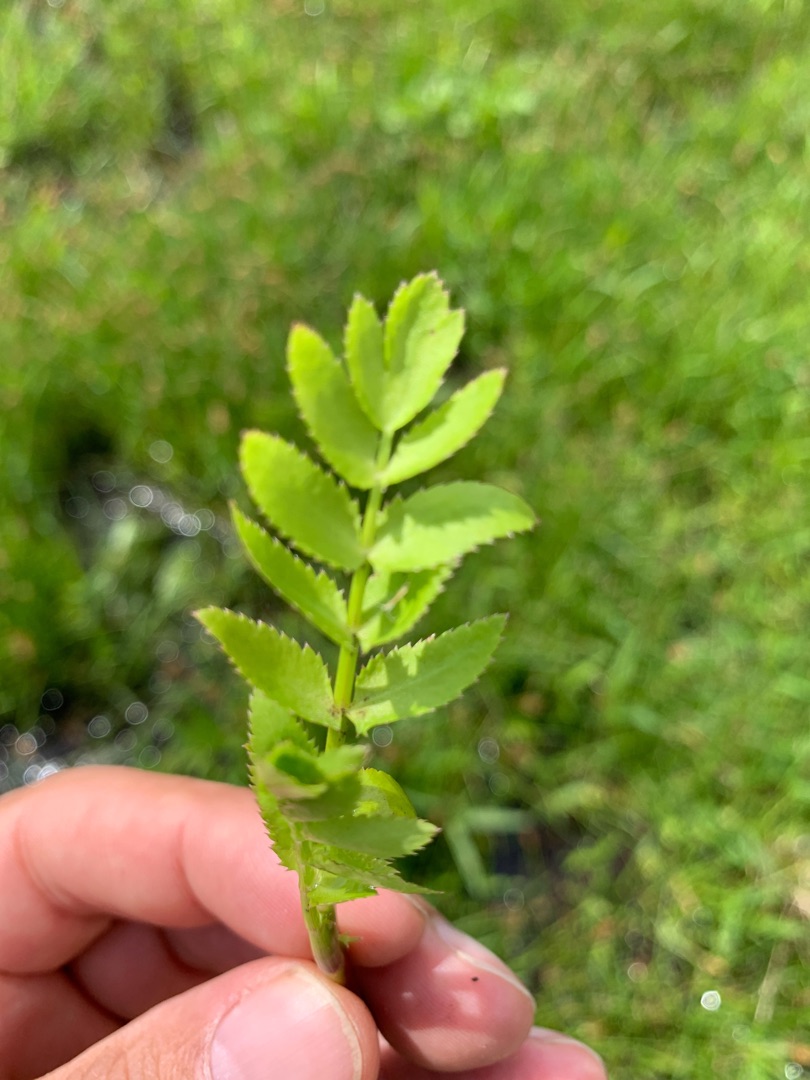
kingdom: Plantae
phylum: Tracheophyta
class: Magnoliopsida
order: Apiales
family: Apiaceae
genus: Berula
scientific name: Berula erecta
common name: Sideskærm
